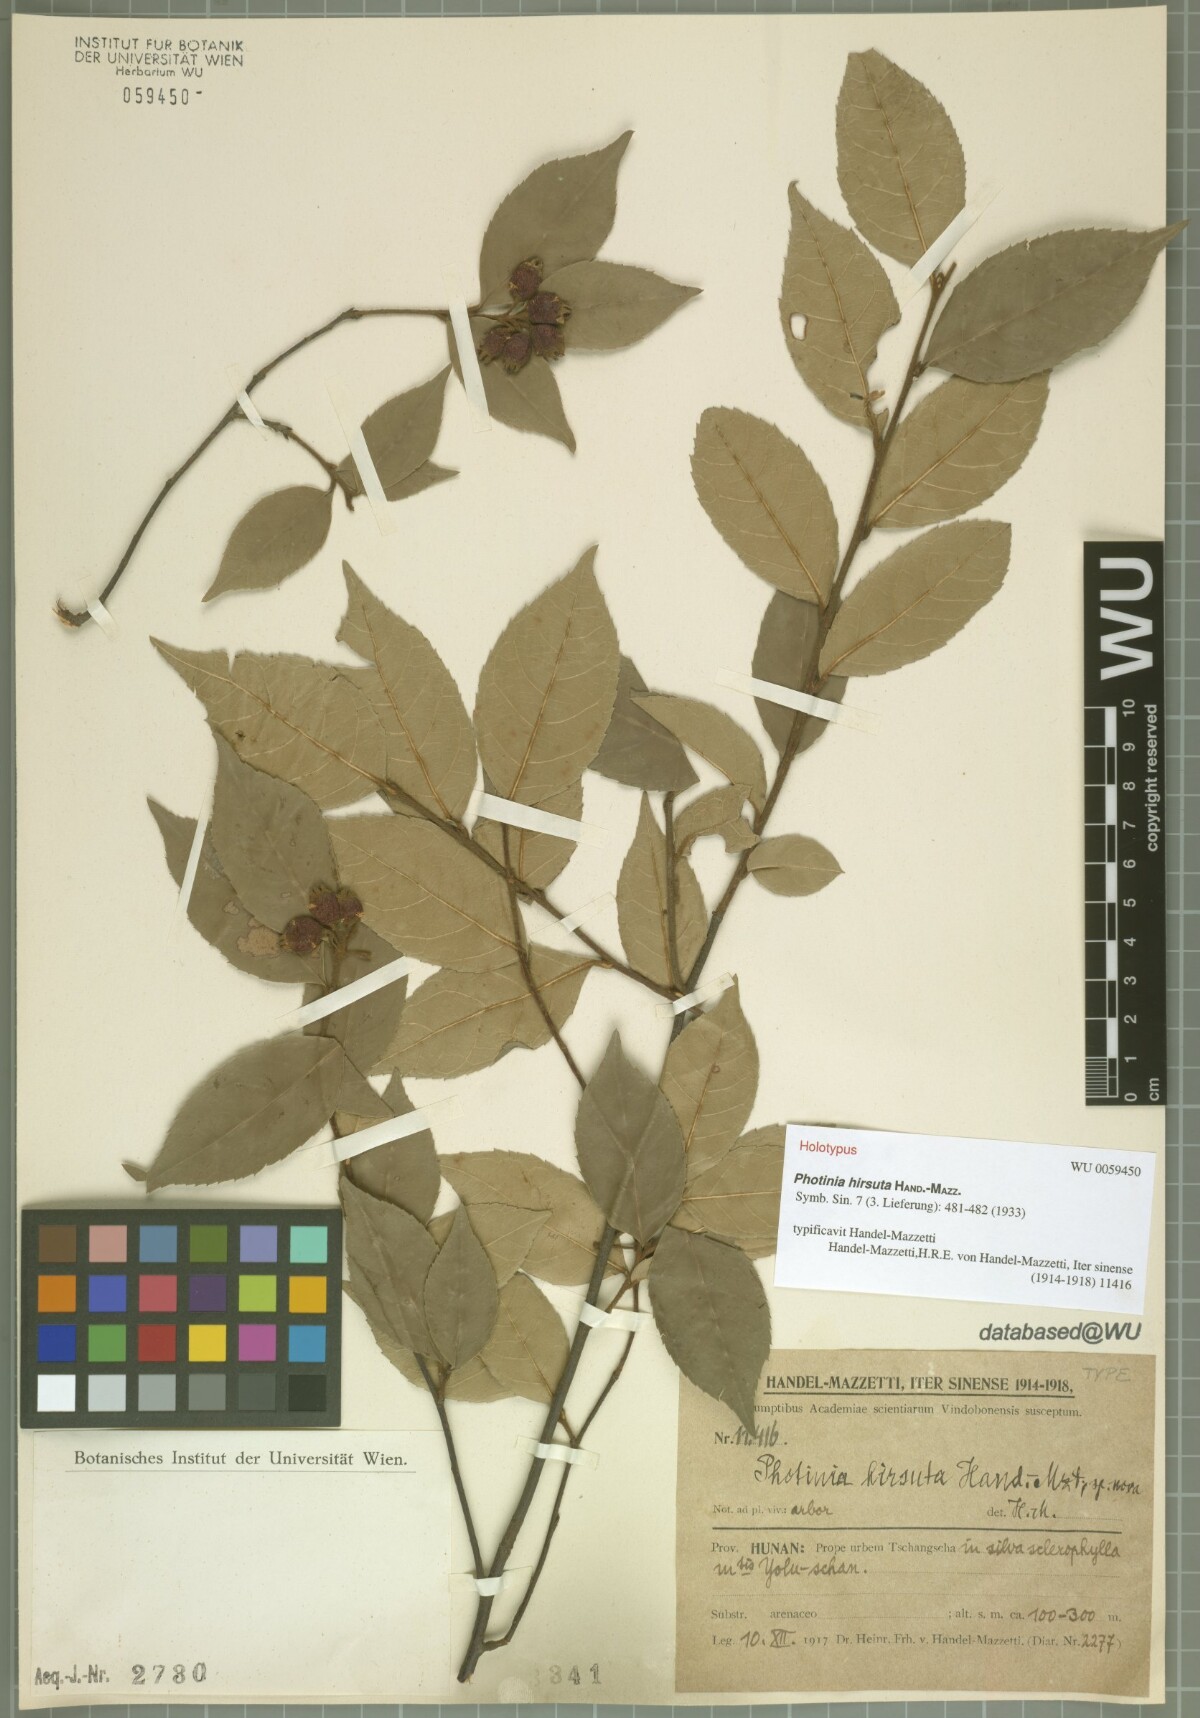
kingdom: Plantae
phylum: Tracheophyta
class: Magnoliopsida
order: Rosales
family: Rosaceae
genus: Photinia
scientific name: Photinia hirsuta
